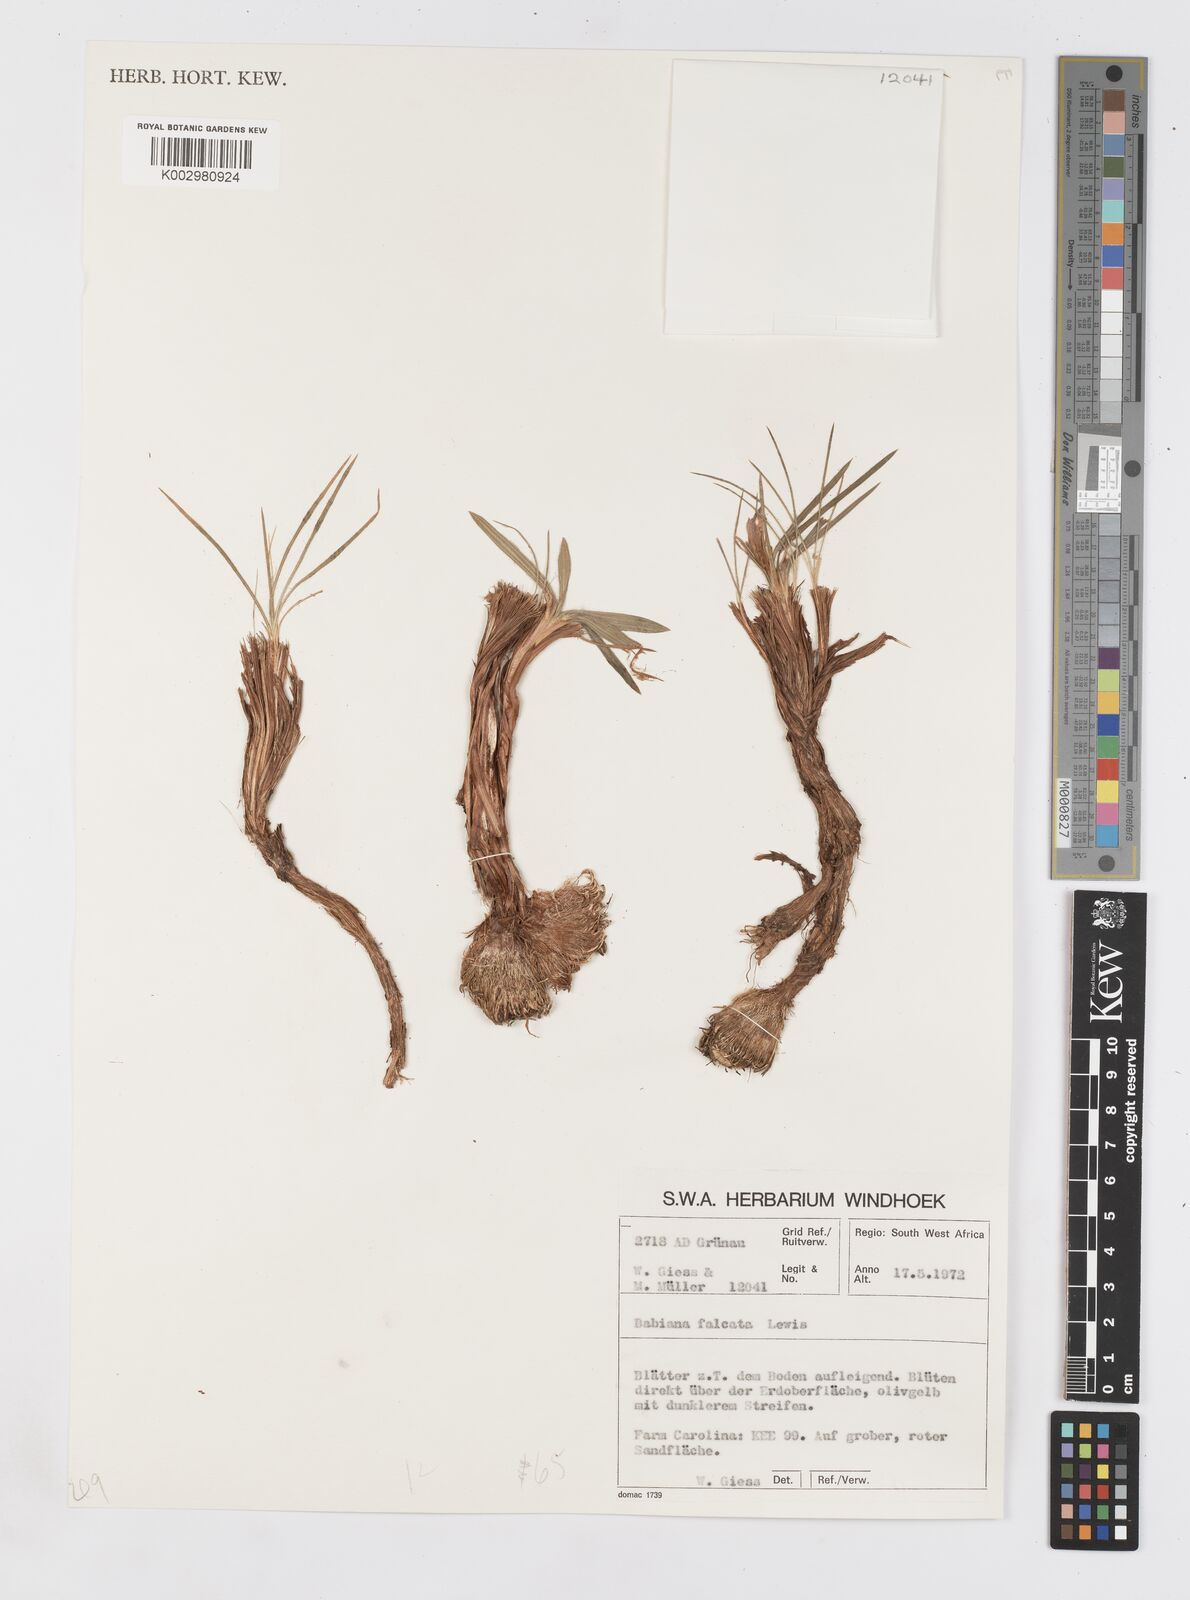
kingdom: Plantae
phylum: Tracheophyta
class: Liliopsida
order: Asparagales
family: Iridaceae
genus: Babiana
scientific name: Babiana hypogaea
